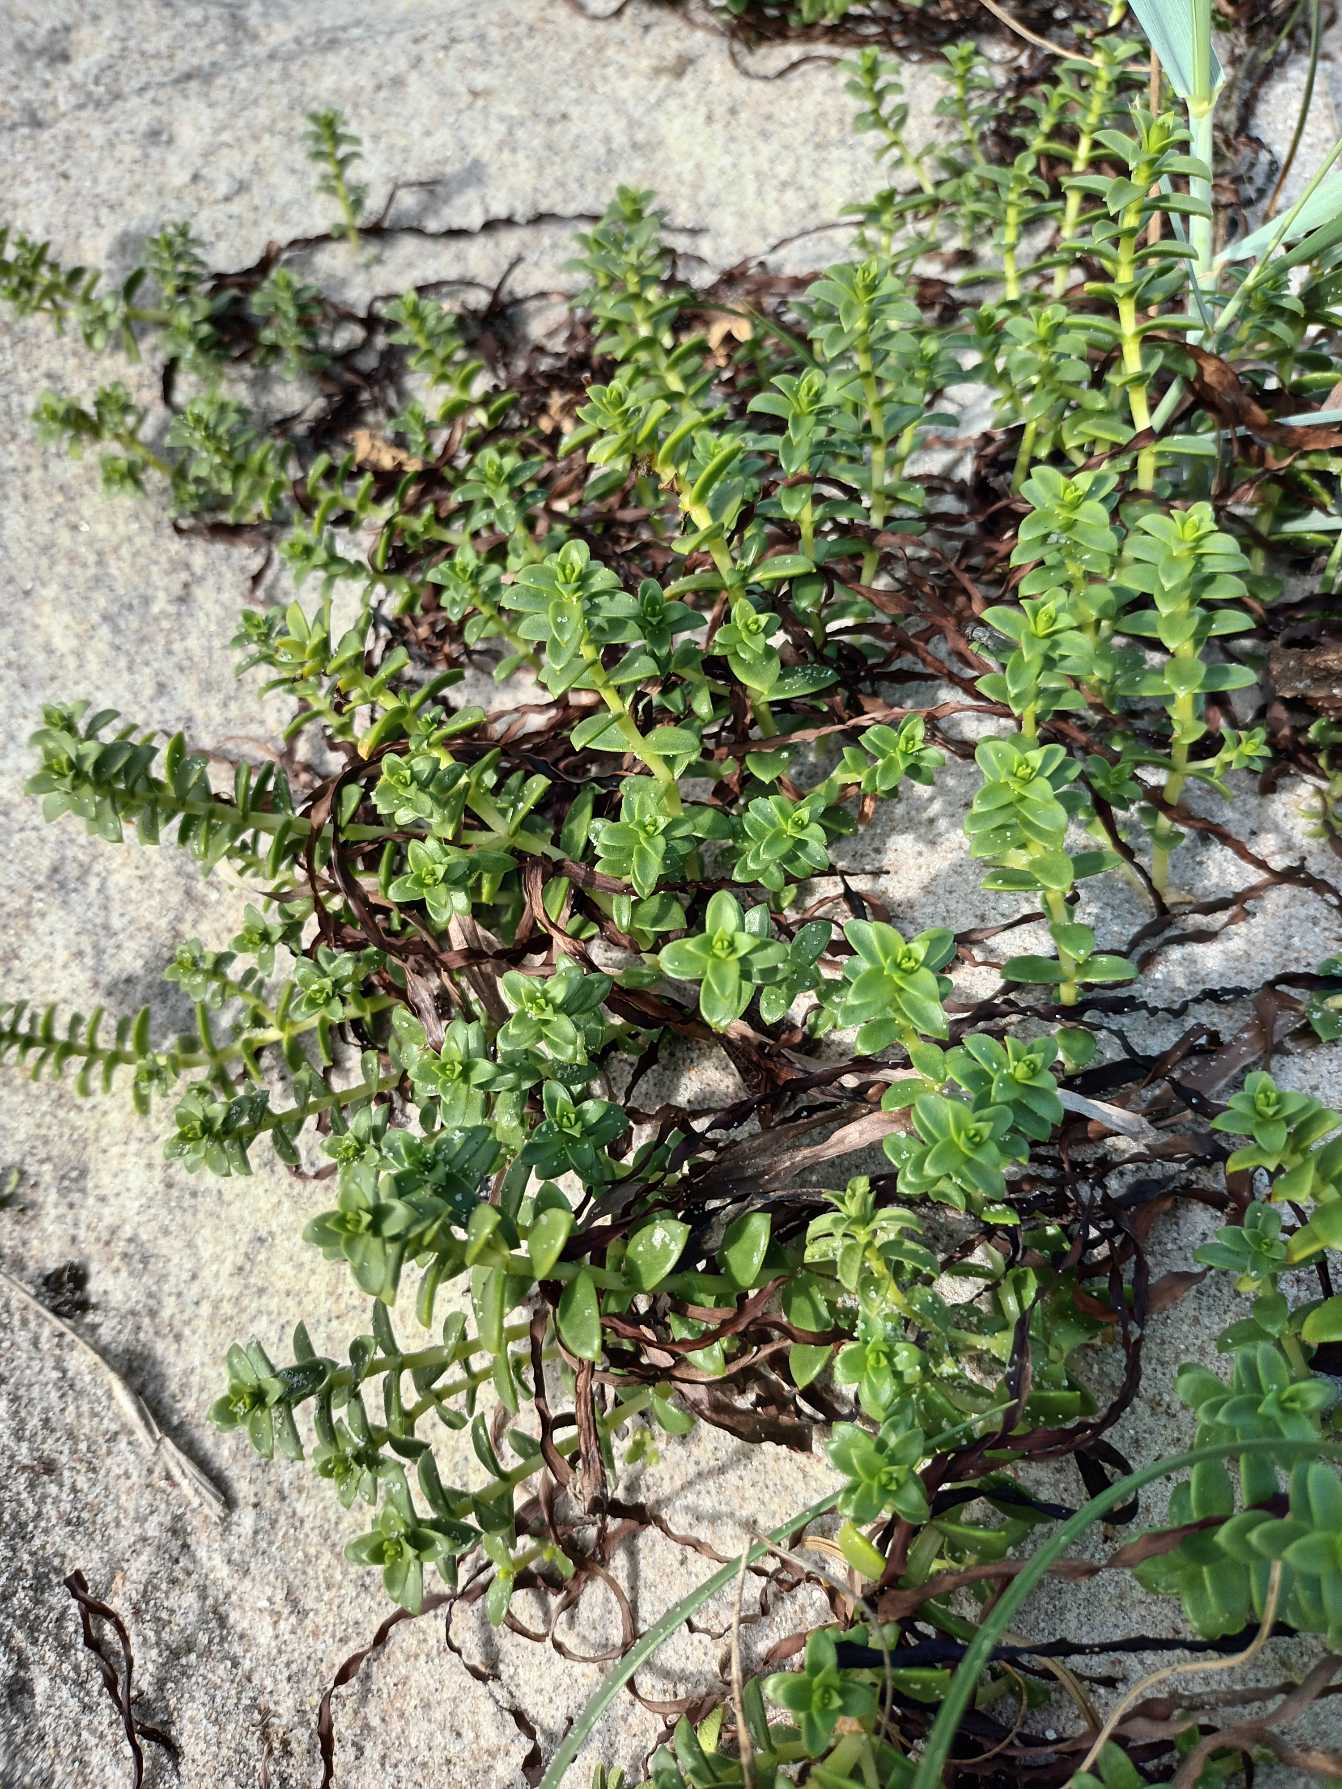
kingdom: Plantae
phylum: Tracheophyta
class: Magnoliopsida
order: Caryophyllales
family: Caryophyllaceae
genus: Honckenya
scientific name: Honckenya peploides
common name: Strandarve
